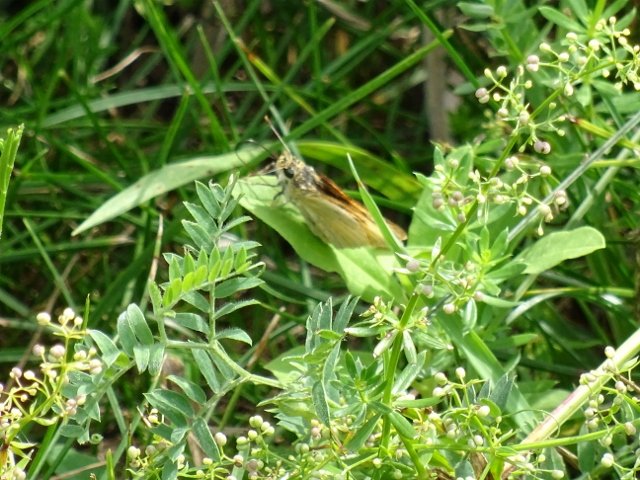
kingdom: Animalia
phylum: Arthropoda
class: Insecta
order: Lepidoptera
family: Hesperiidae
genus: Atrytone
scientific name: Atrytone delaware
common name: Delaware Skipper
